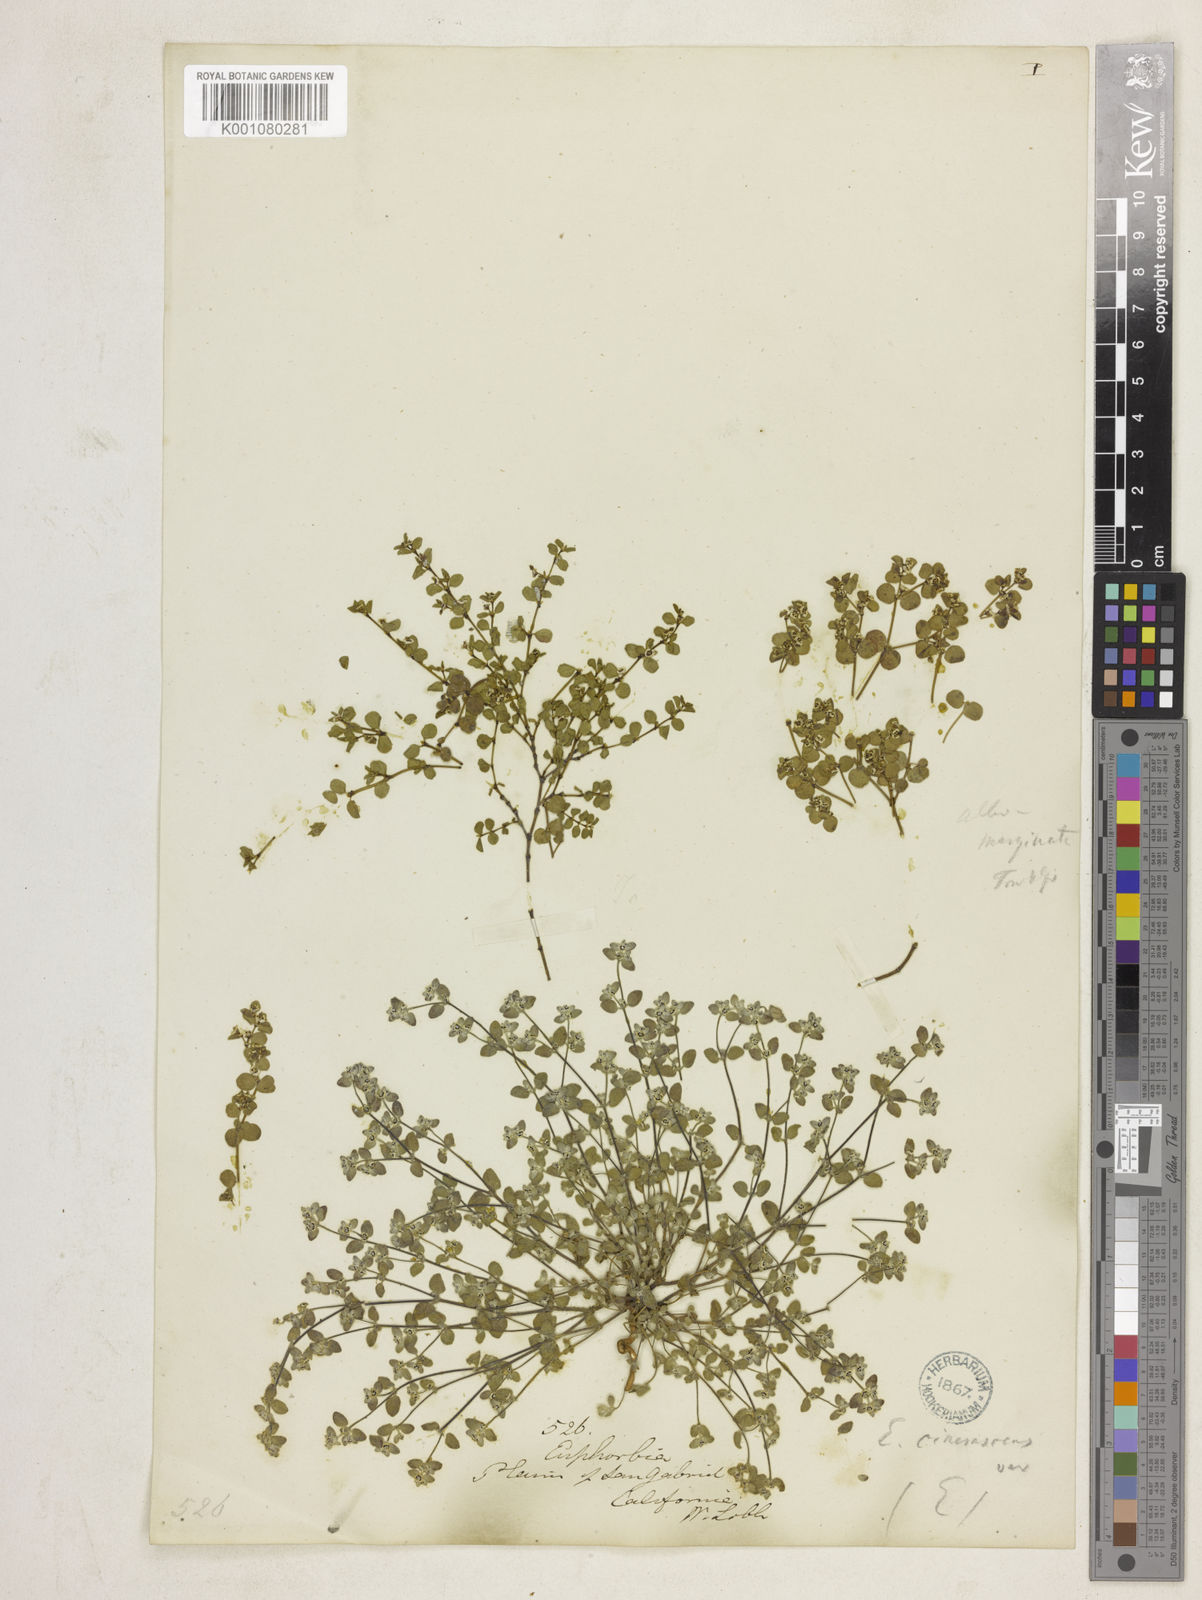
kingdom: Plantae
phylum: Tracheophyta
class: Magnoliopsida
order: Malpighiales
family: Euphorbiaceae
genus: Euphorbia
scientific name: Euphorbia melanadenia
